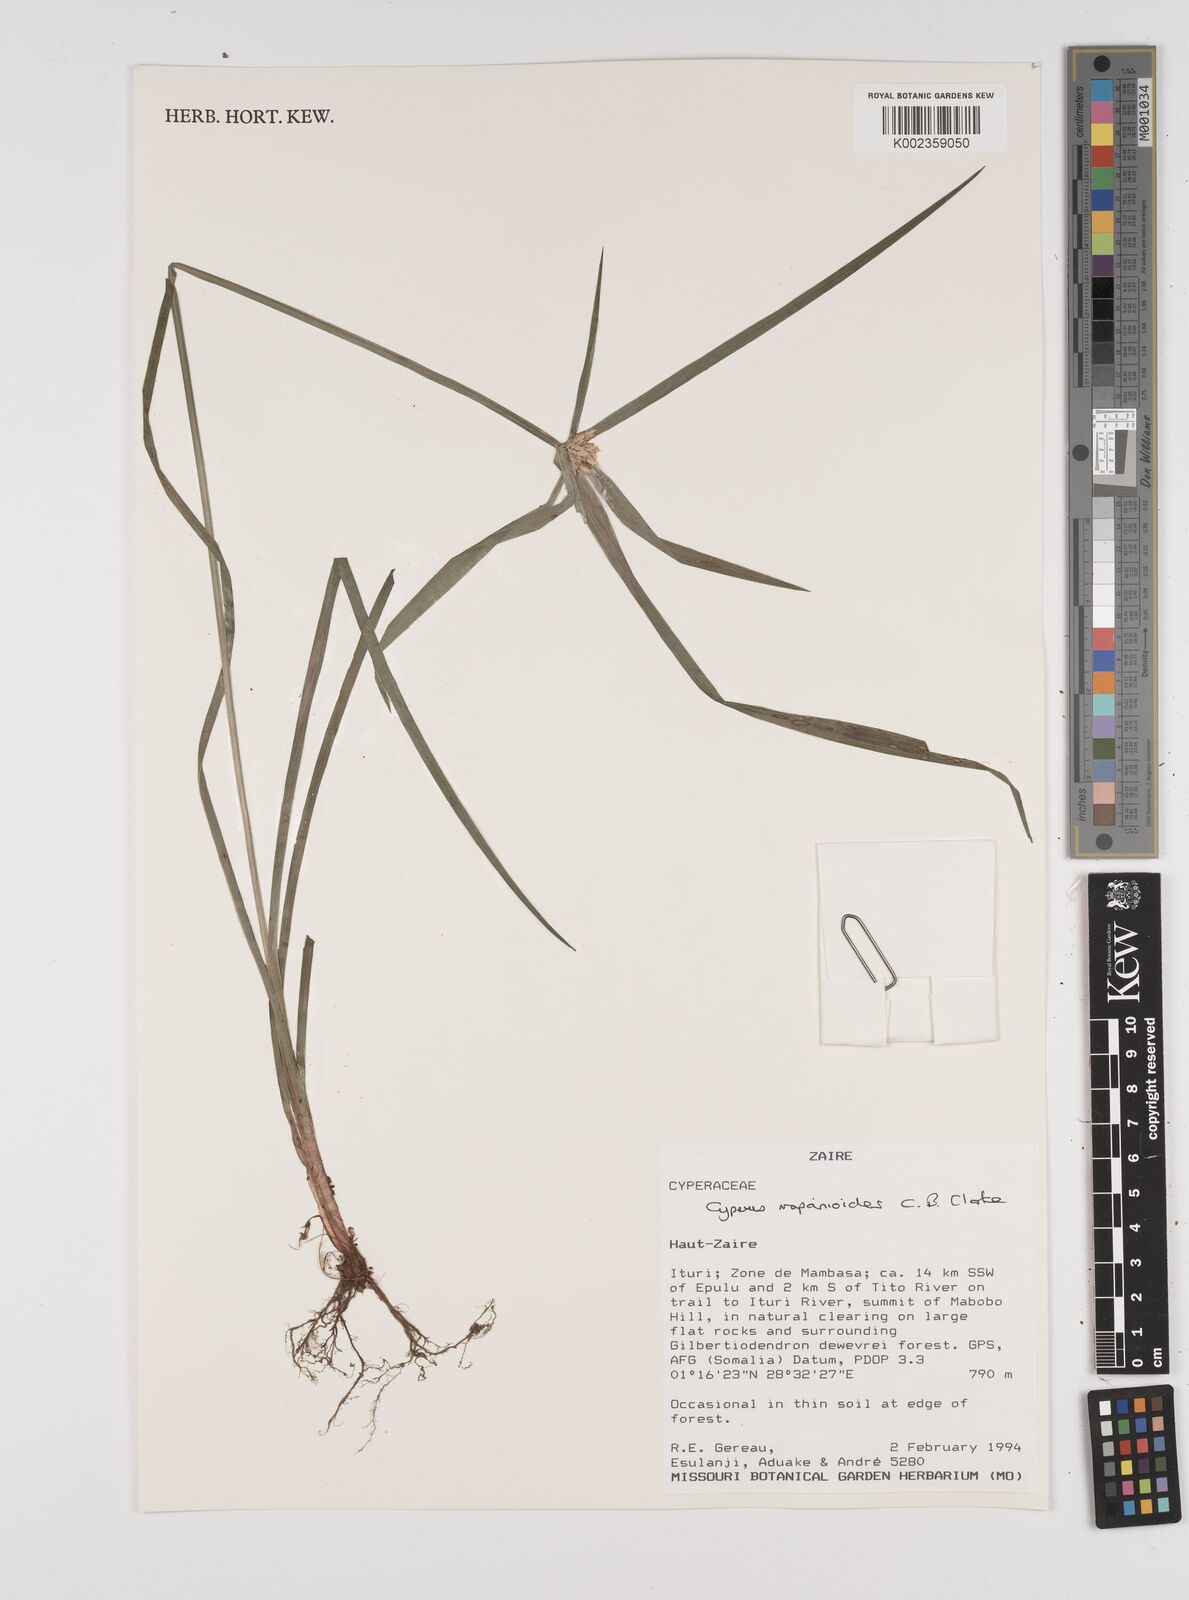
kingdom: Plantae
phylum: Tracheophyta
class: Liliopsida
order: Poales
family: Cyperaceae
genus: Cyperus
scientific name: Cyperus mapanioides
